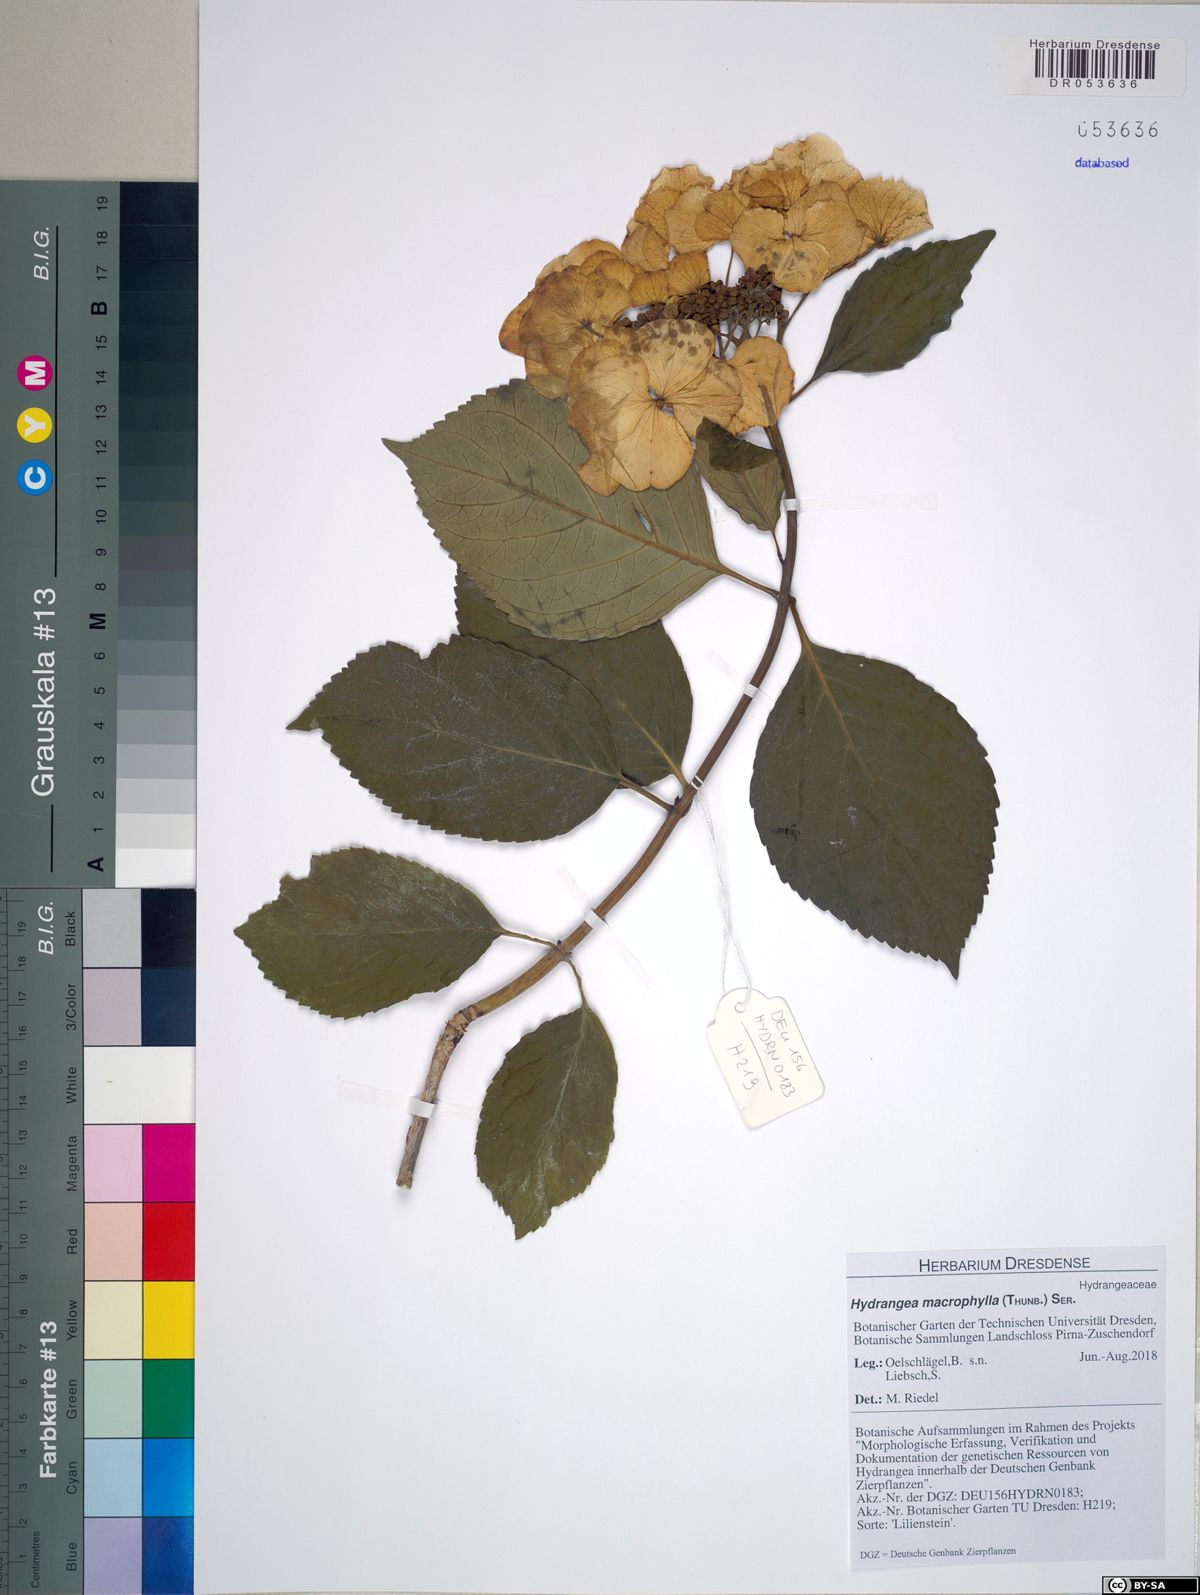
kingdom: Plantae
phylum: Tracheophyta
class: Magnoliopsida
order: Cornales
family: Hydrangeaceae
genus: Hydrangea
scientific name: Hydrangea macrophylla
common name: Hydrangea
